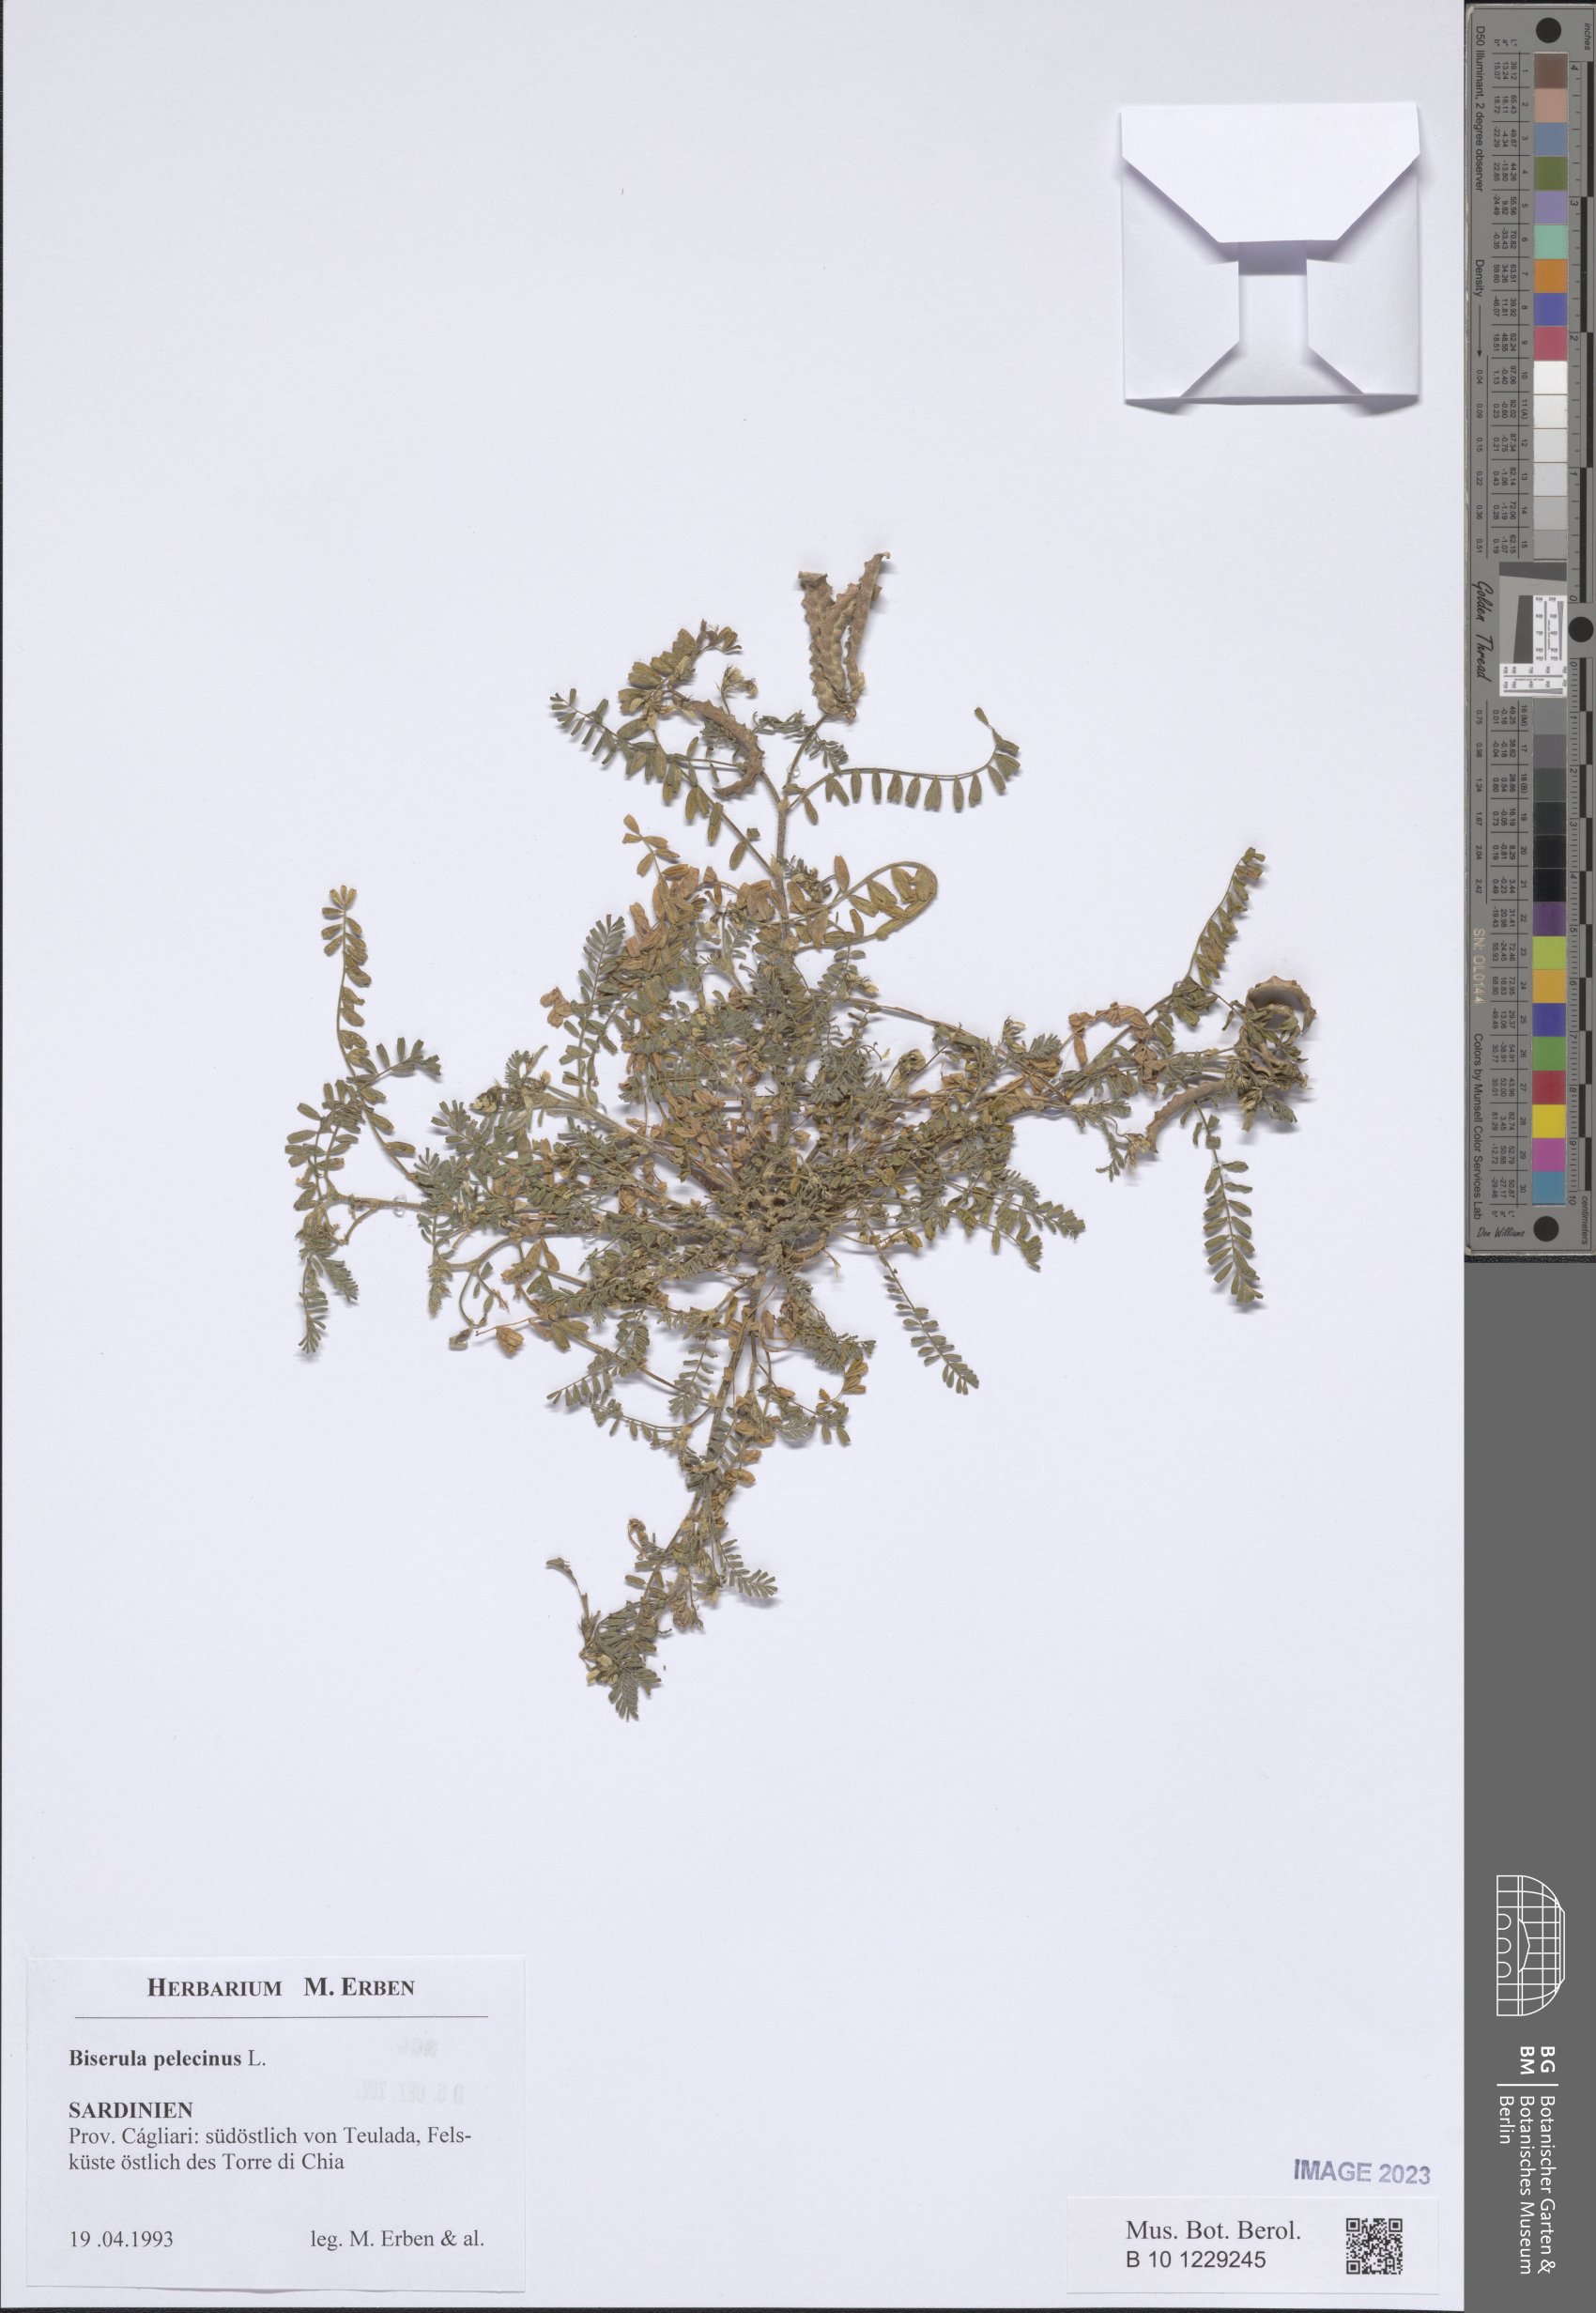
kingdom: Plantae
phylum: Tracheophyta
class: Magnoliopsida
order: Fabales
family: Fabaceae
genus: Biserrula
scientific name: Biserrula pelecinus
